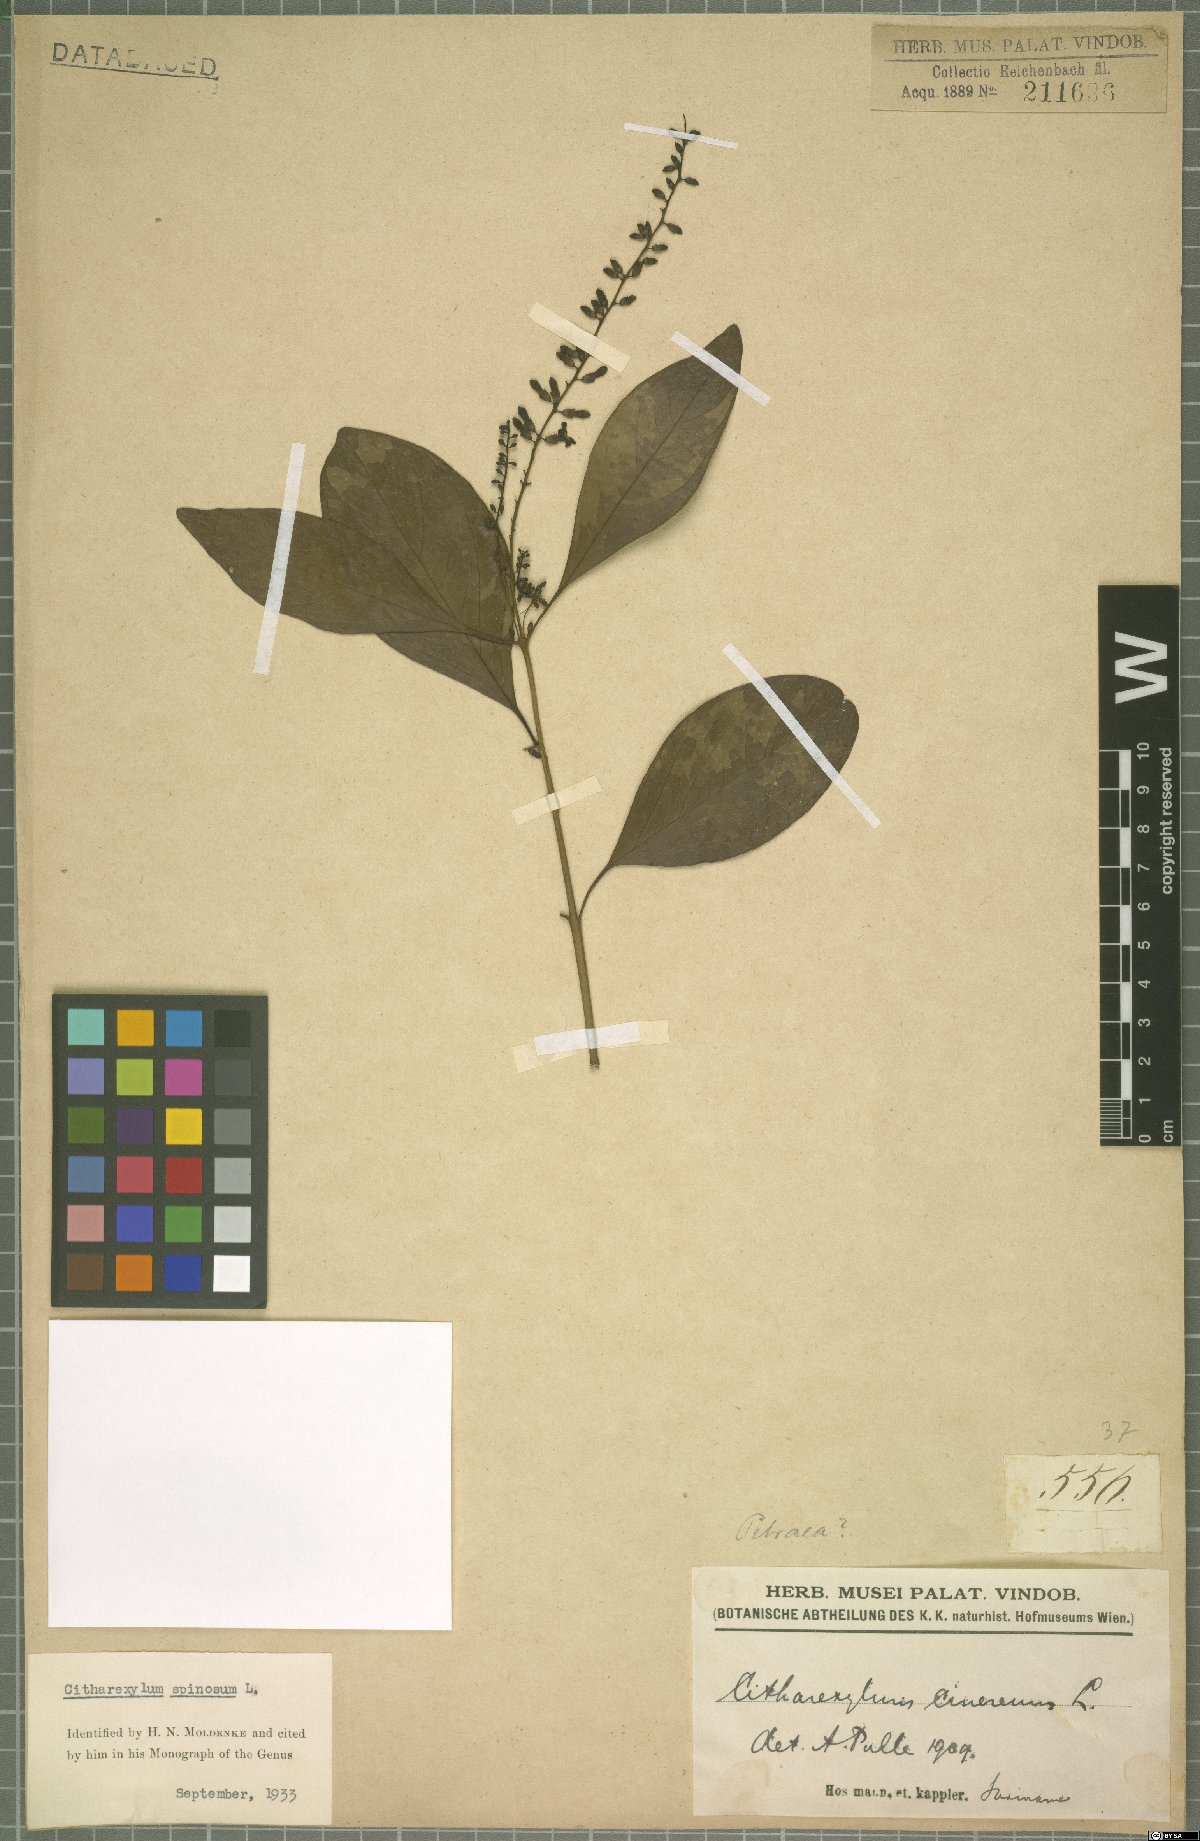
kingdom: Plantae
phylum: Tracheophyta
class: Magnoliopsida
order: Lamiales
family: Verbenaceae
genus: Citharexylum
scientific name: Citharexylum spinosum
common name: Fiddlewood
